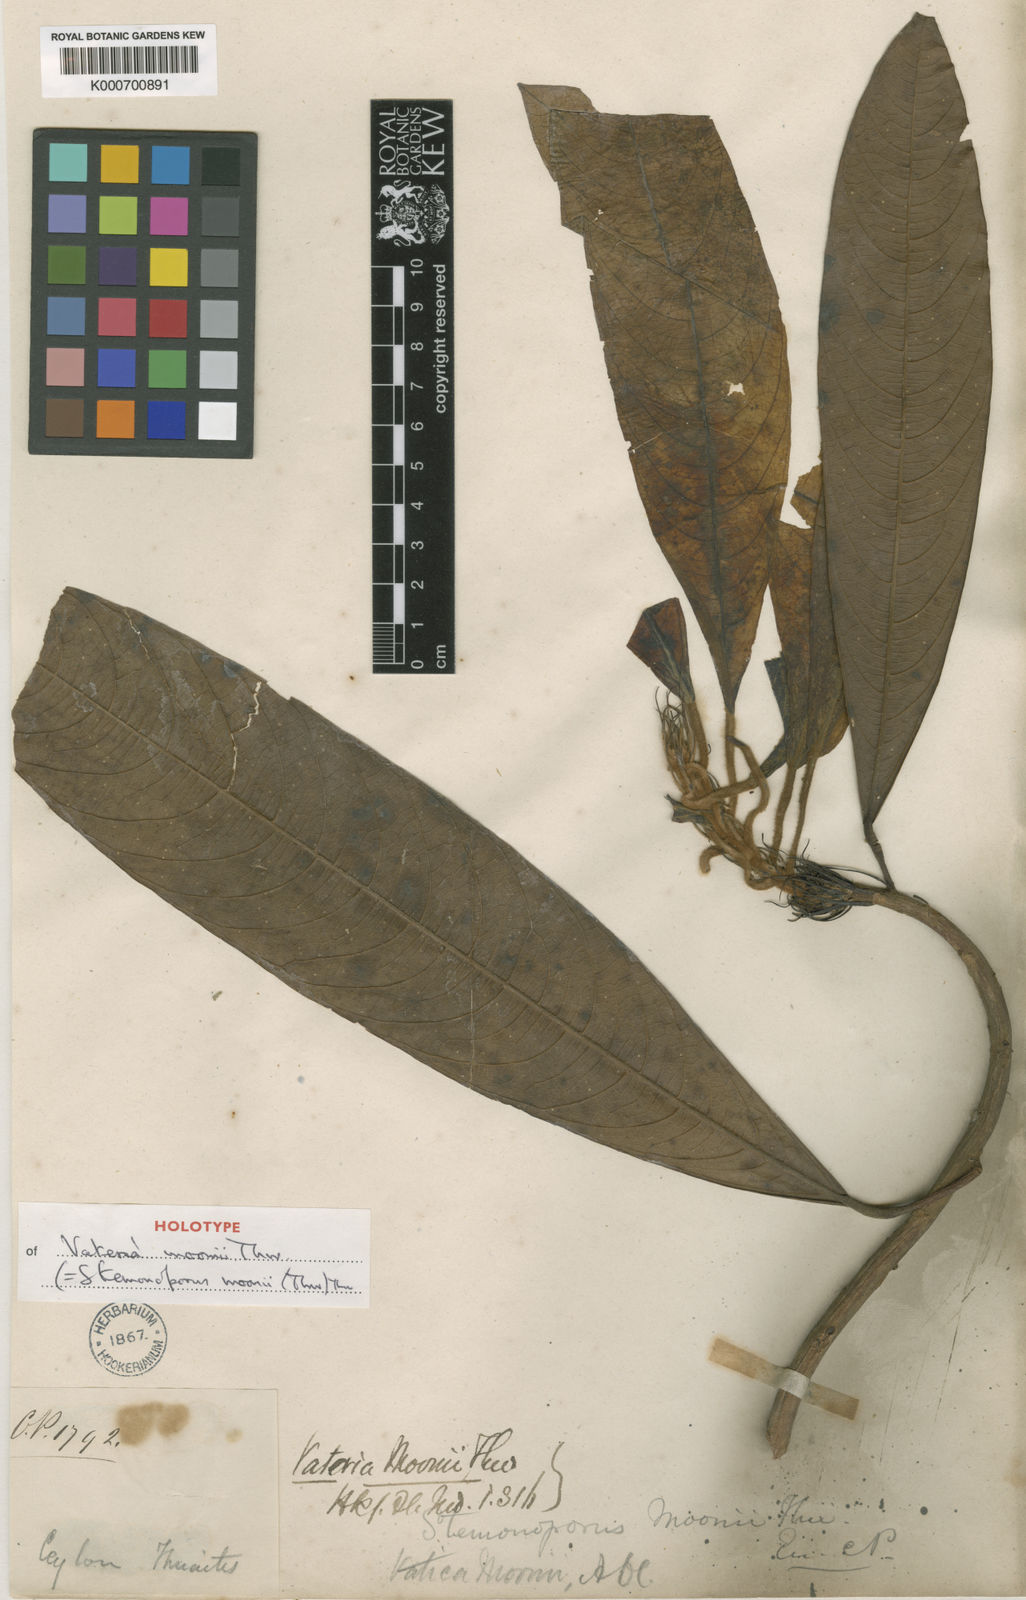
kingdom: Plantae
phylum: Tracheophyta
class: Magnoliopsida
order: Malvales
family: Dipterocarpaceae
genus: Stemonoporus
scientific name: Stemonoporus moonii
